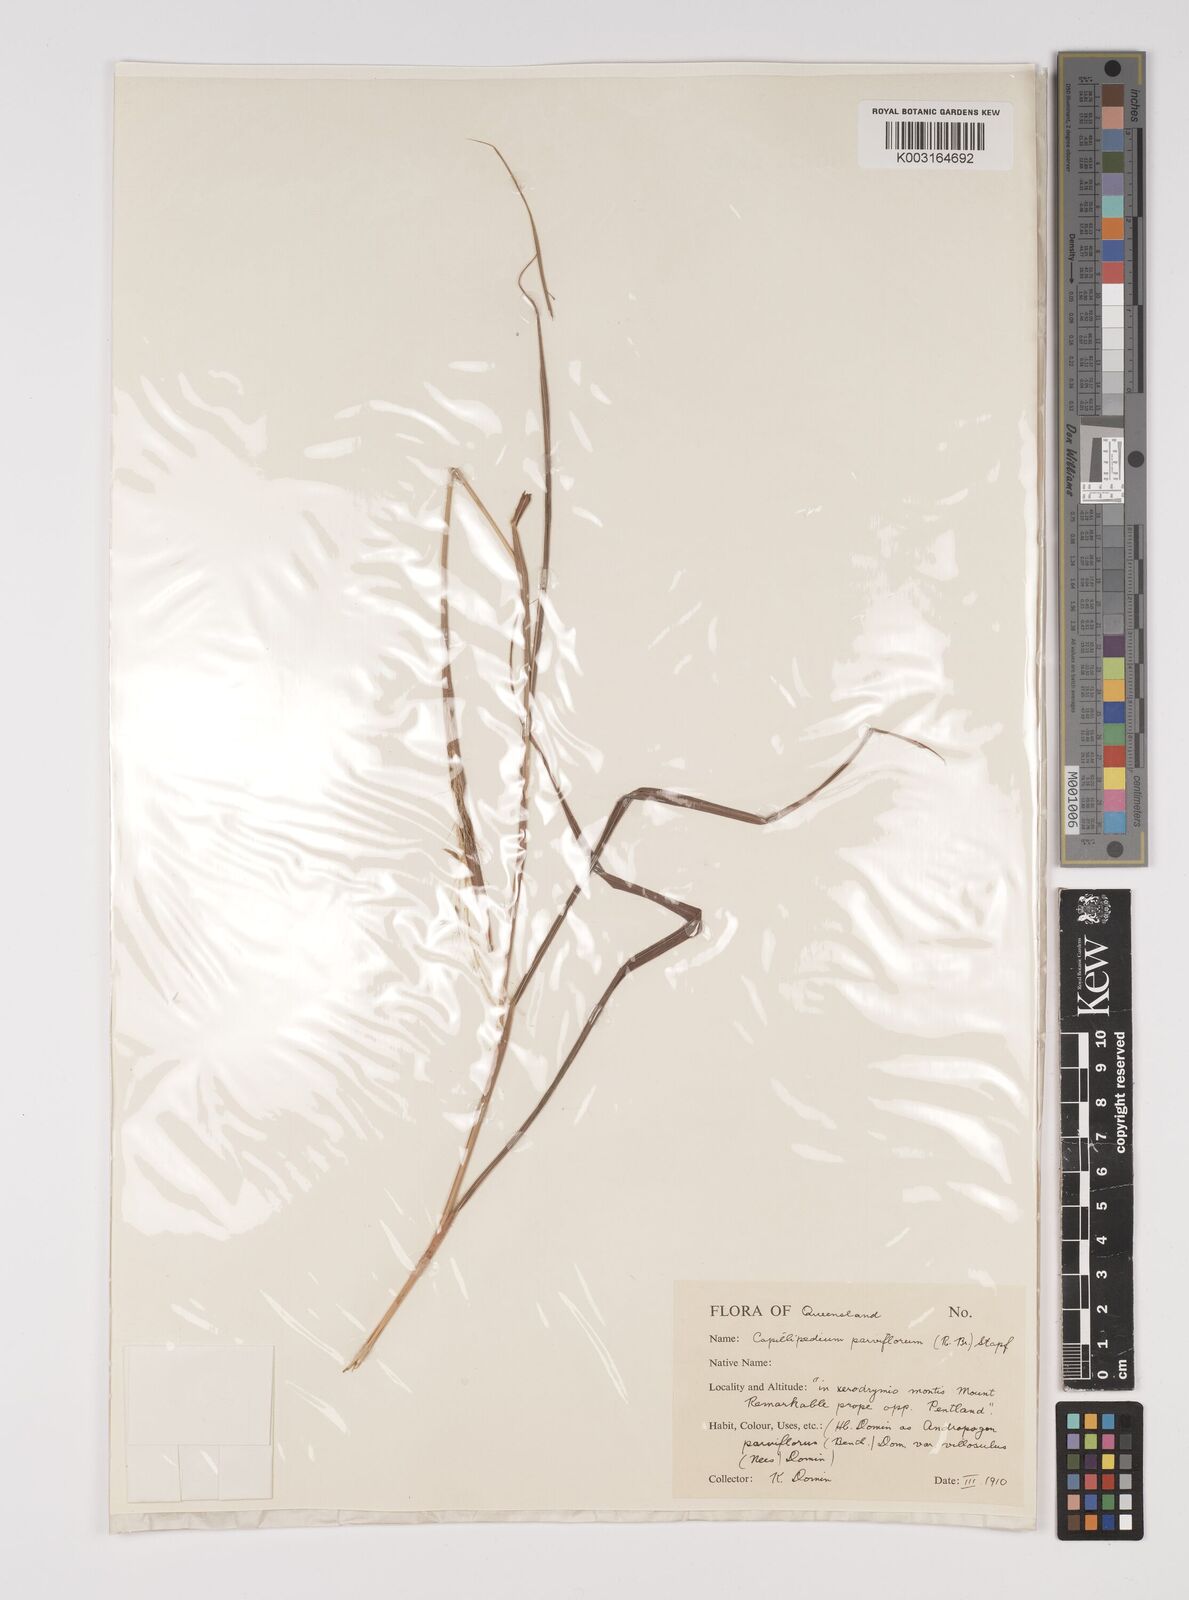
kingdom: Plantae
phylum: Tracheophyta
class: Liliopsida
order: Poales
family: Poaceae
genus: Capillipedium
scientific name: Capillipedium parviflorum
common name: Golden-beard
